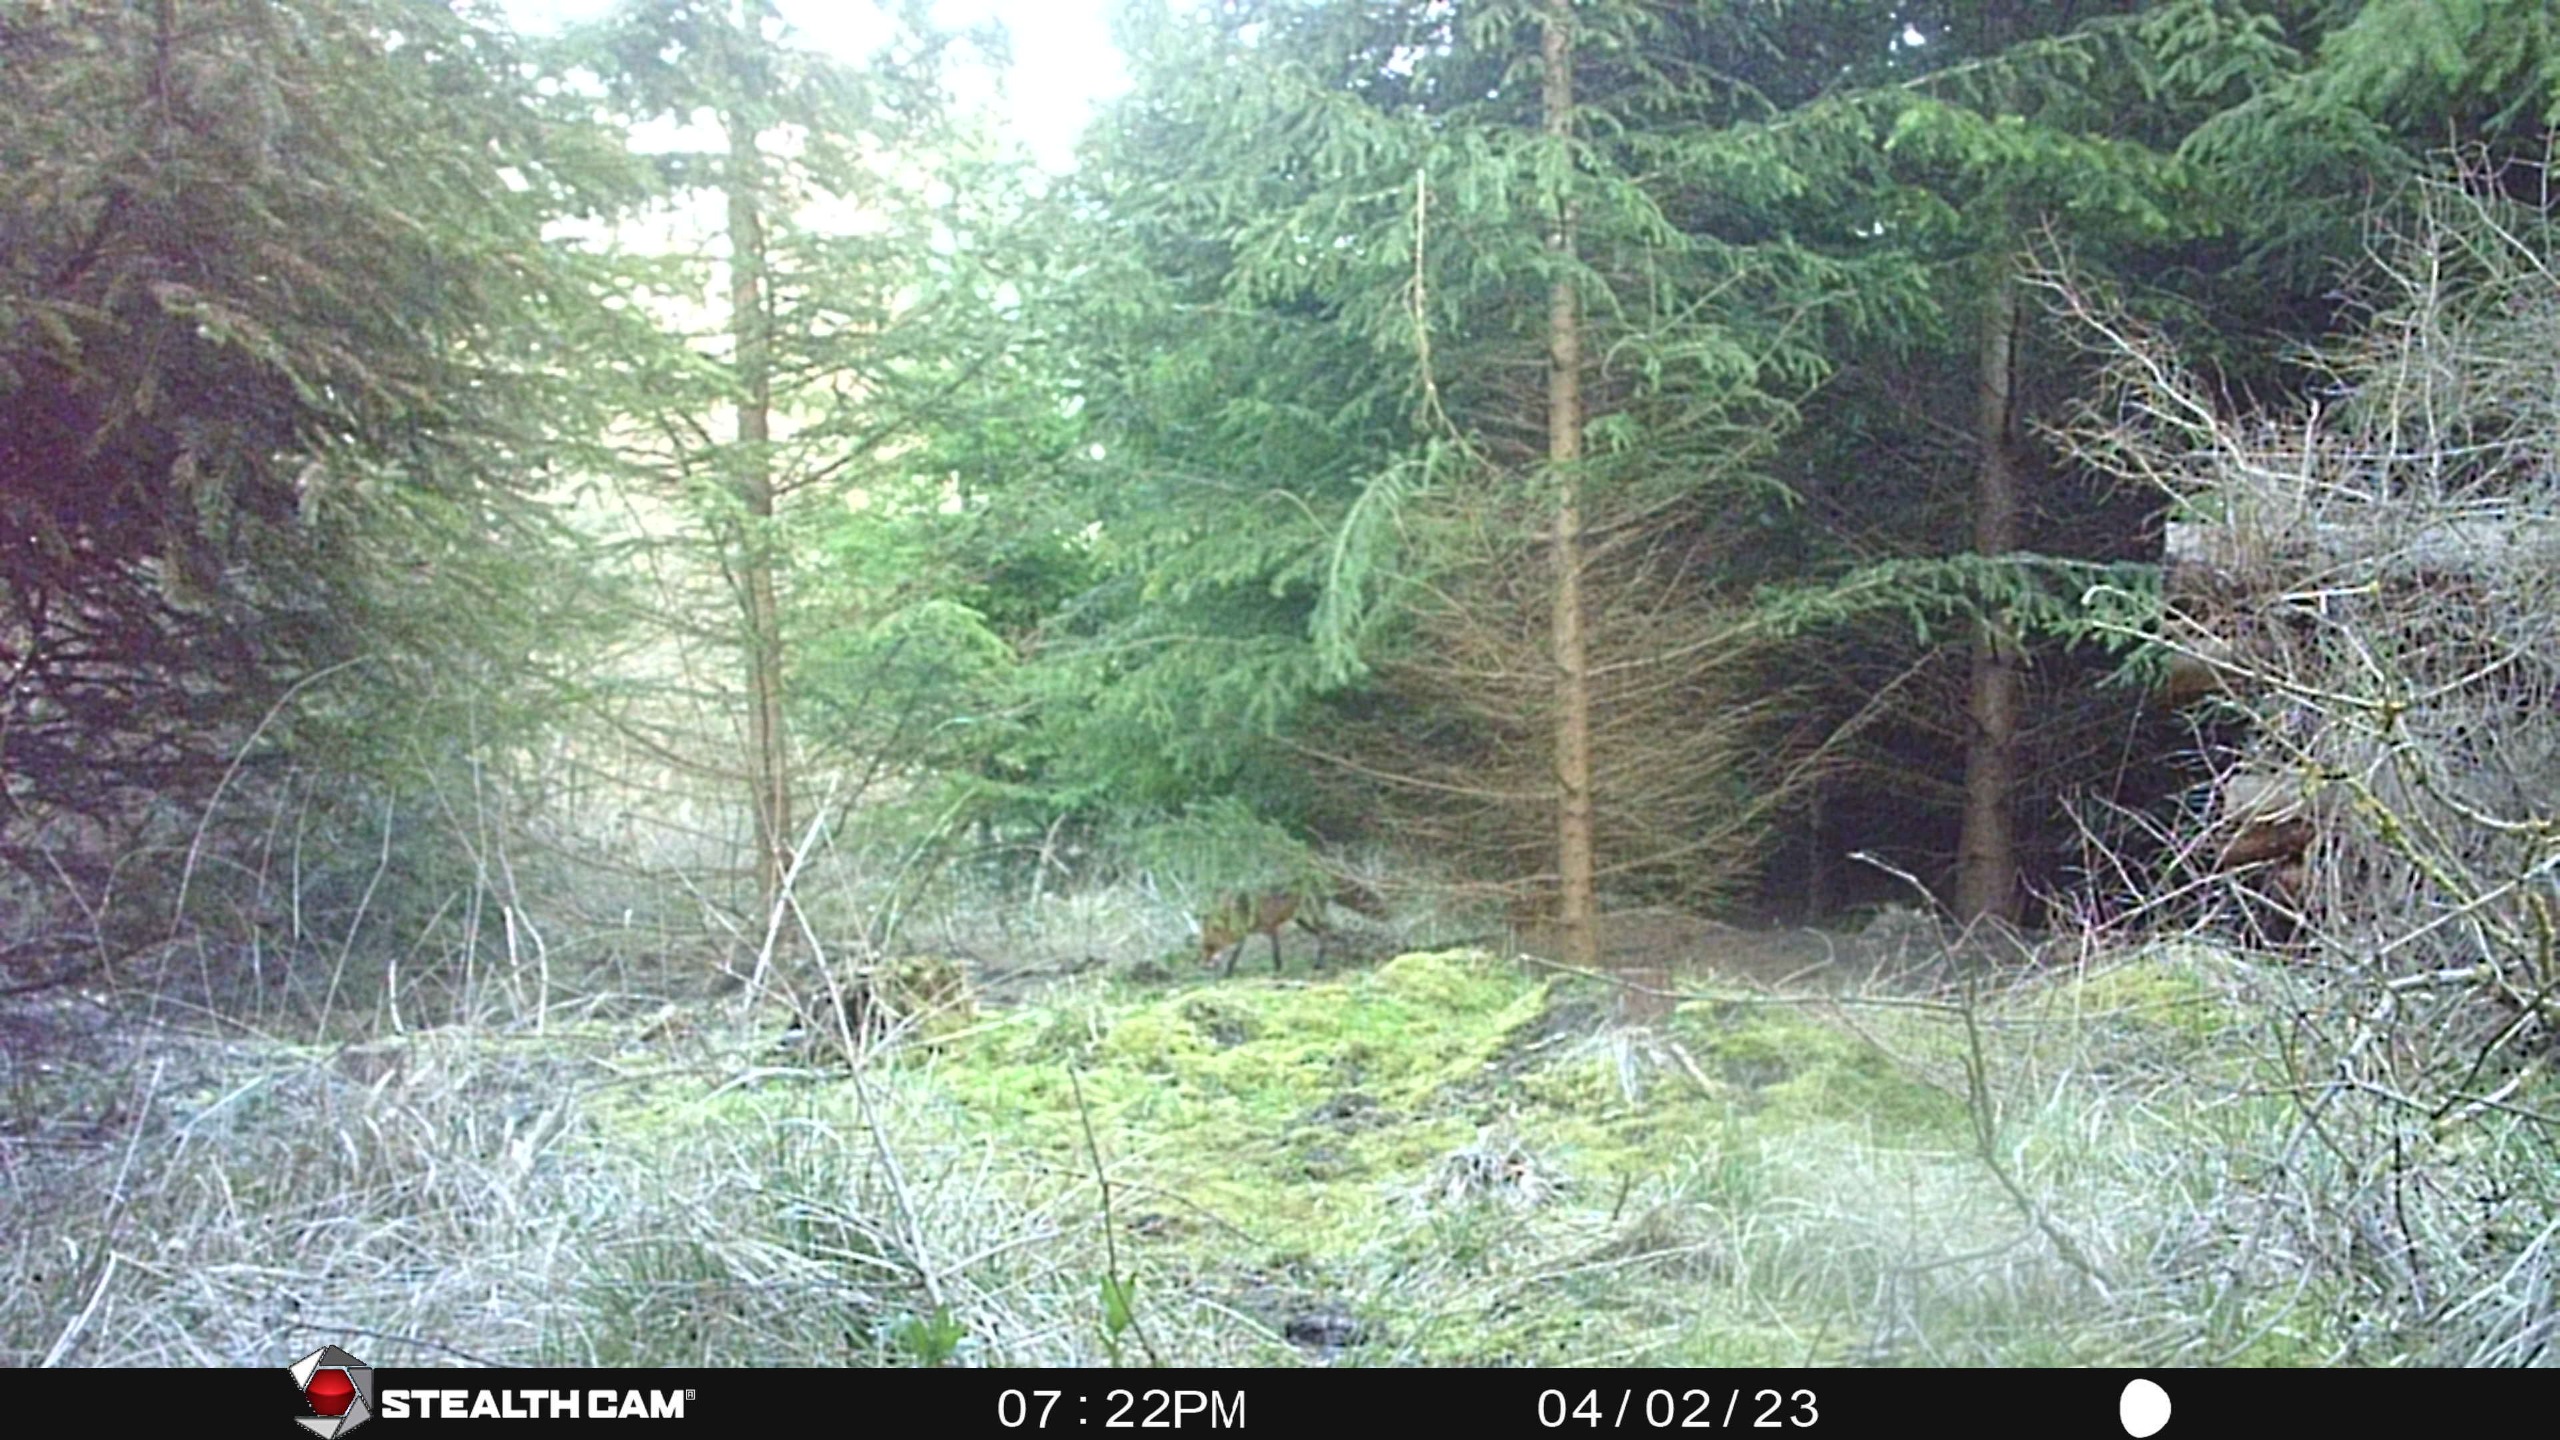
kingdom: Animalia
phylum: Chordata
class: Mammalia
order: Carnivora
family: Canidae
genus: Vulpes
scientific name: Vulpes vulpes
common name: Ræv
